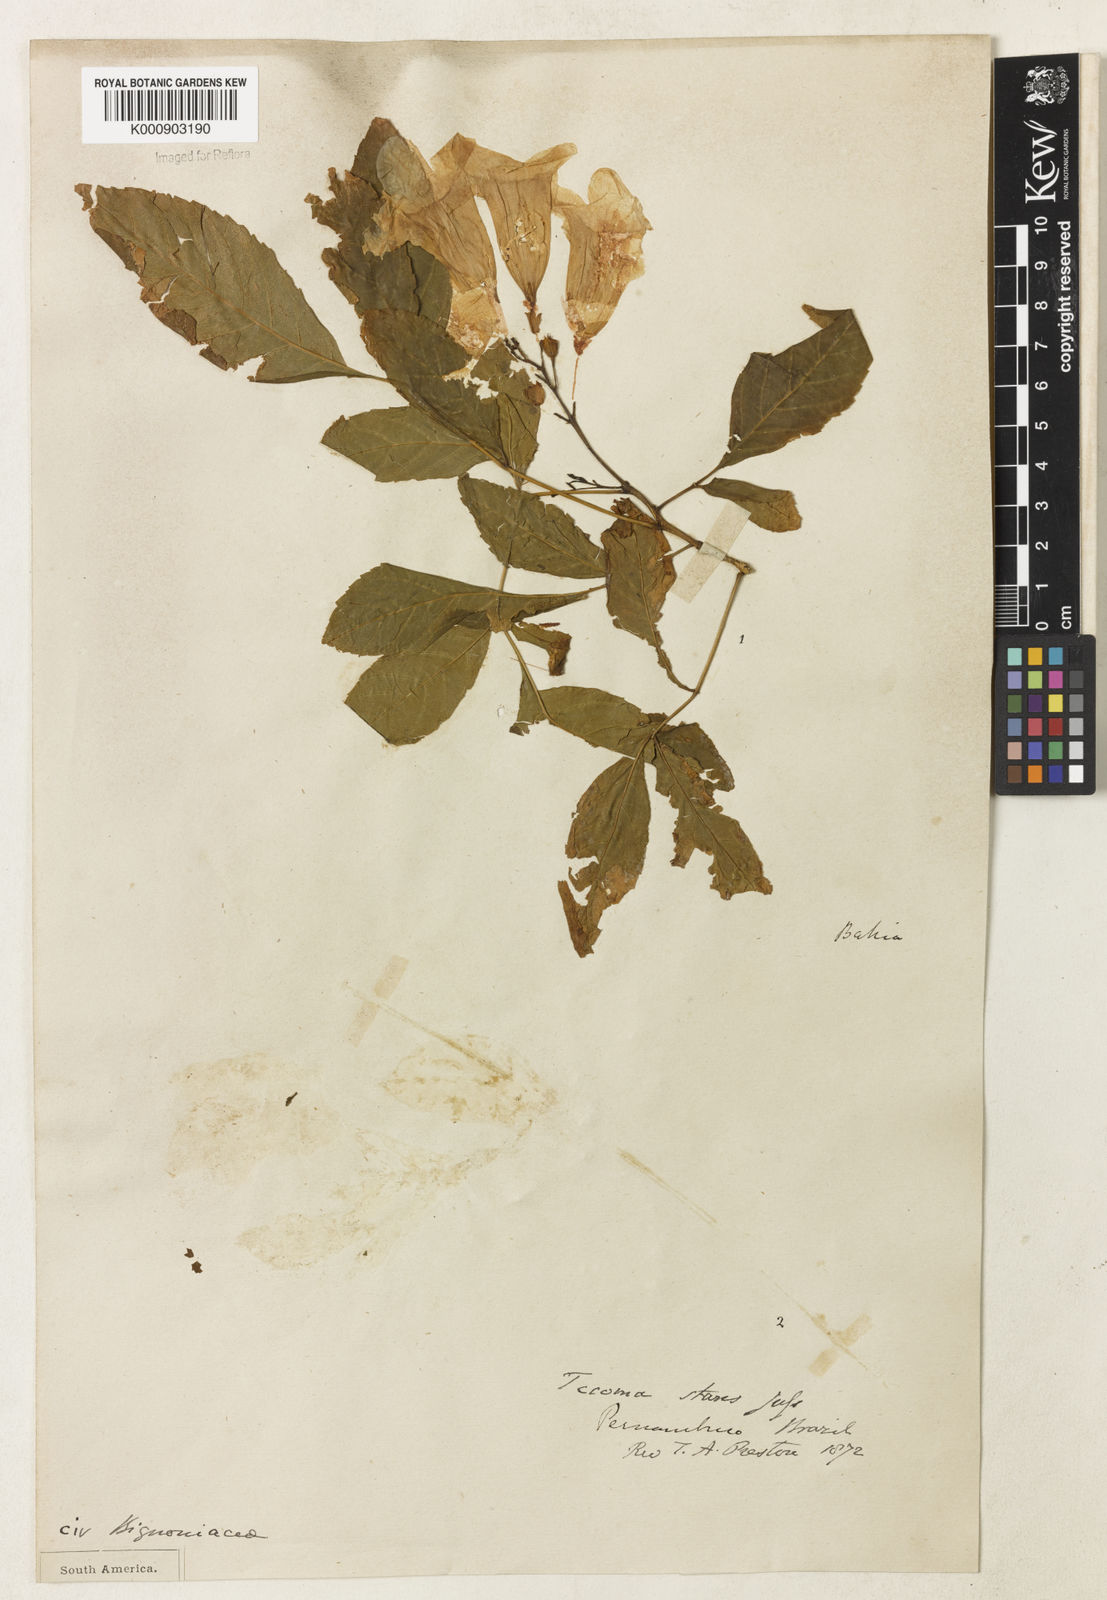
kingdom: Plantae
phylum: Tracheophyta
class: Magnoliopsida
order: Lamiales
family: Bignoniaceae
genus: Tecoma
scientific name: Tecoma stans
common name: Yellow trumpetbush
